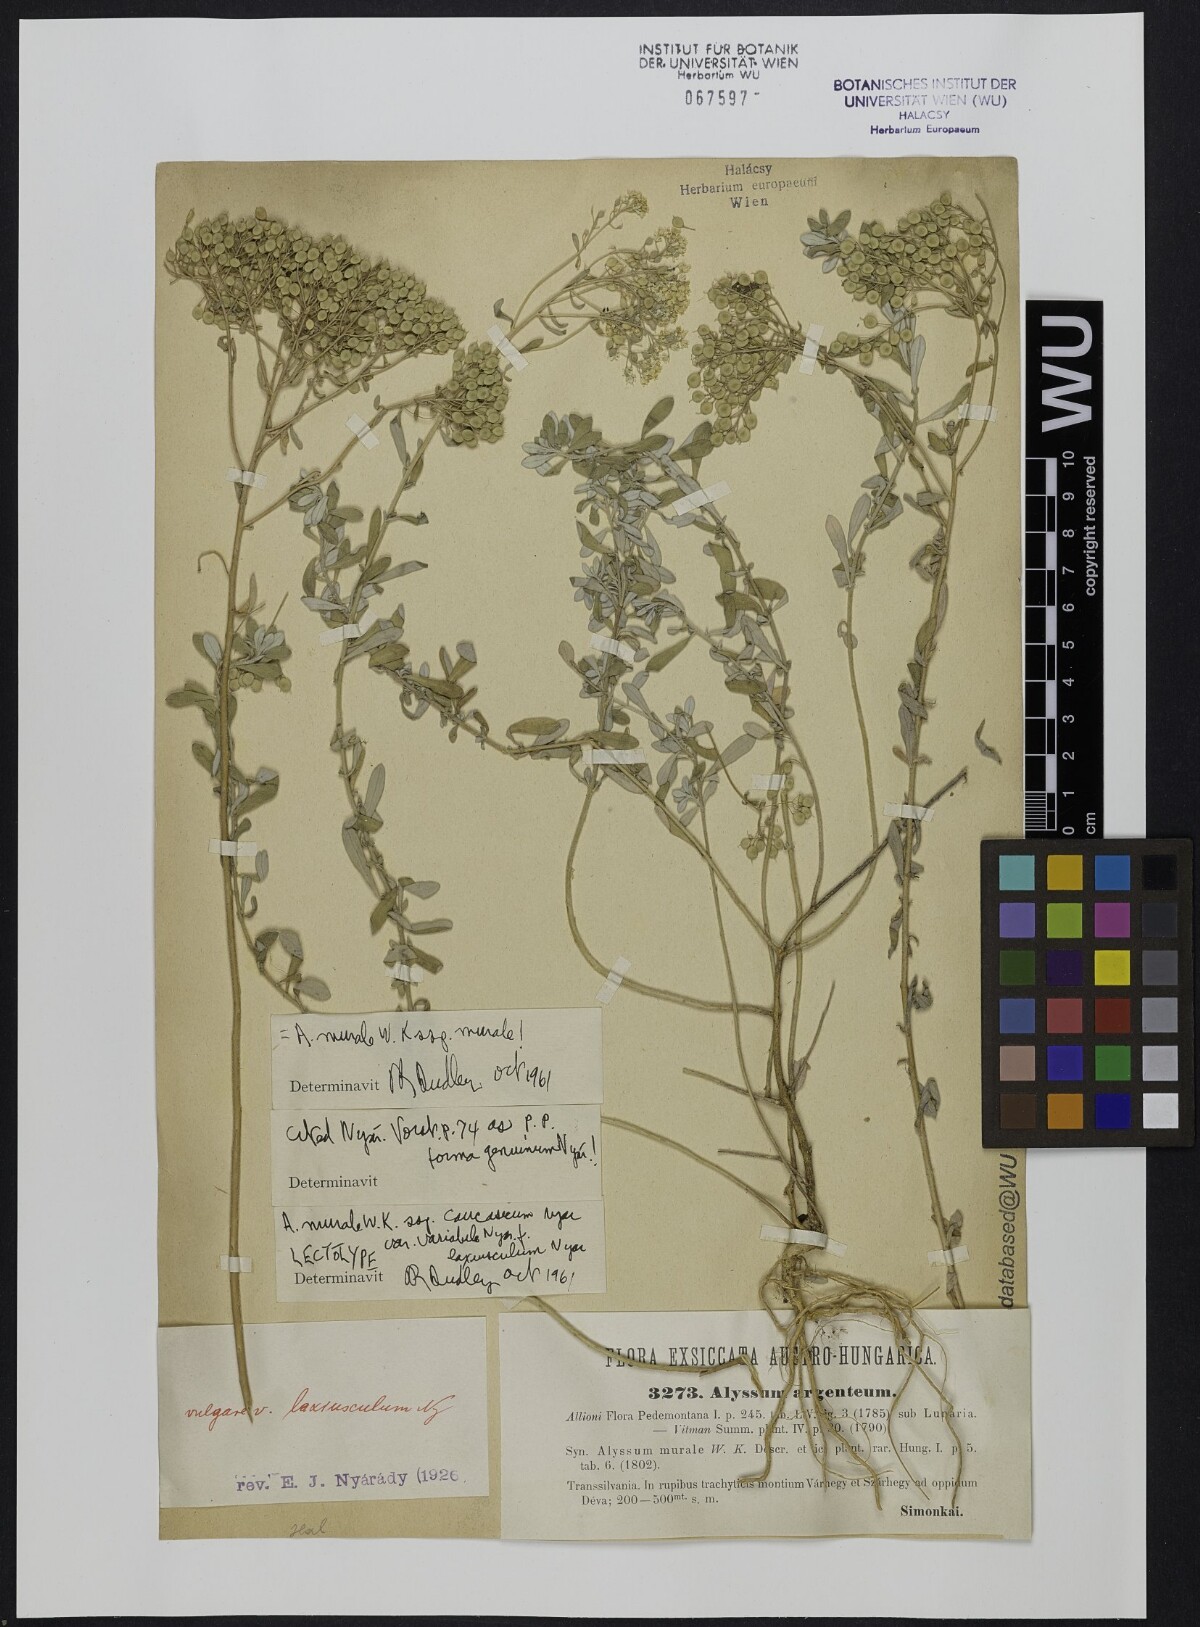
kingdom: Plantae
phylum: Tracheophyta
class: Magnoliopsida
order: Brassicales
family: Brassicaceae
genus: Odontarrhena
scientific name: Odontarrhena muralis
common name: Rock alyssum
